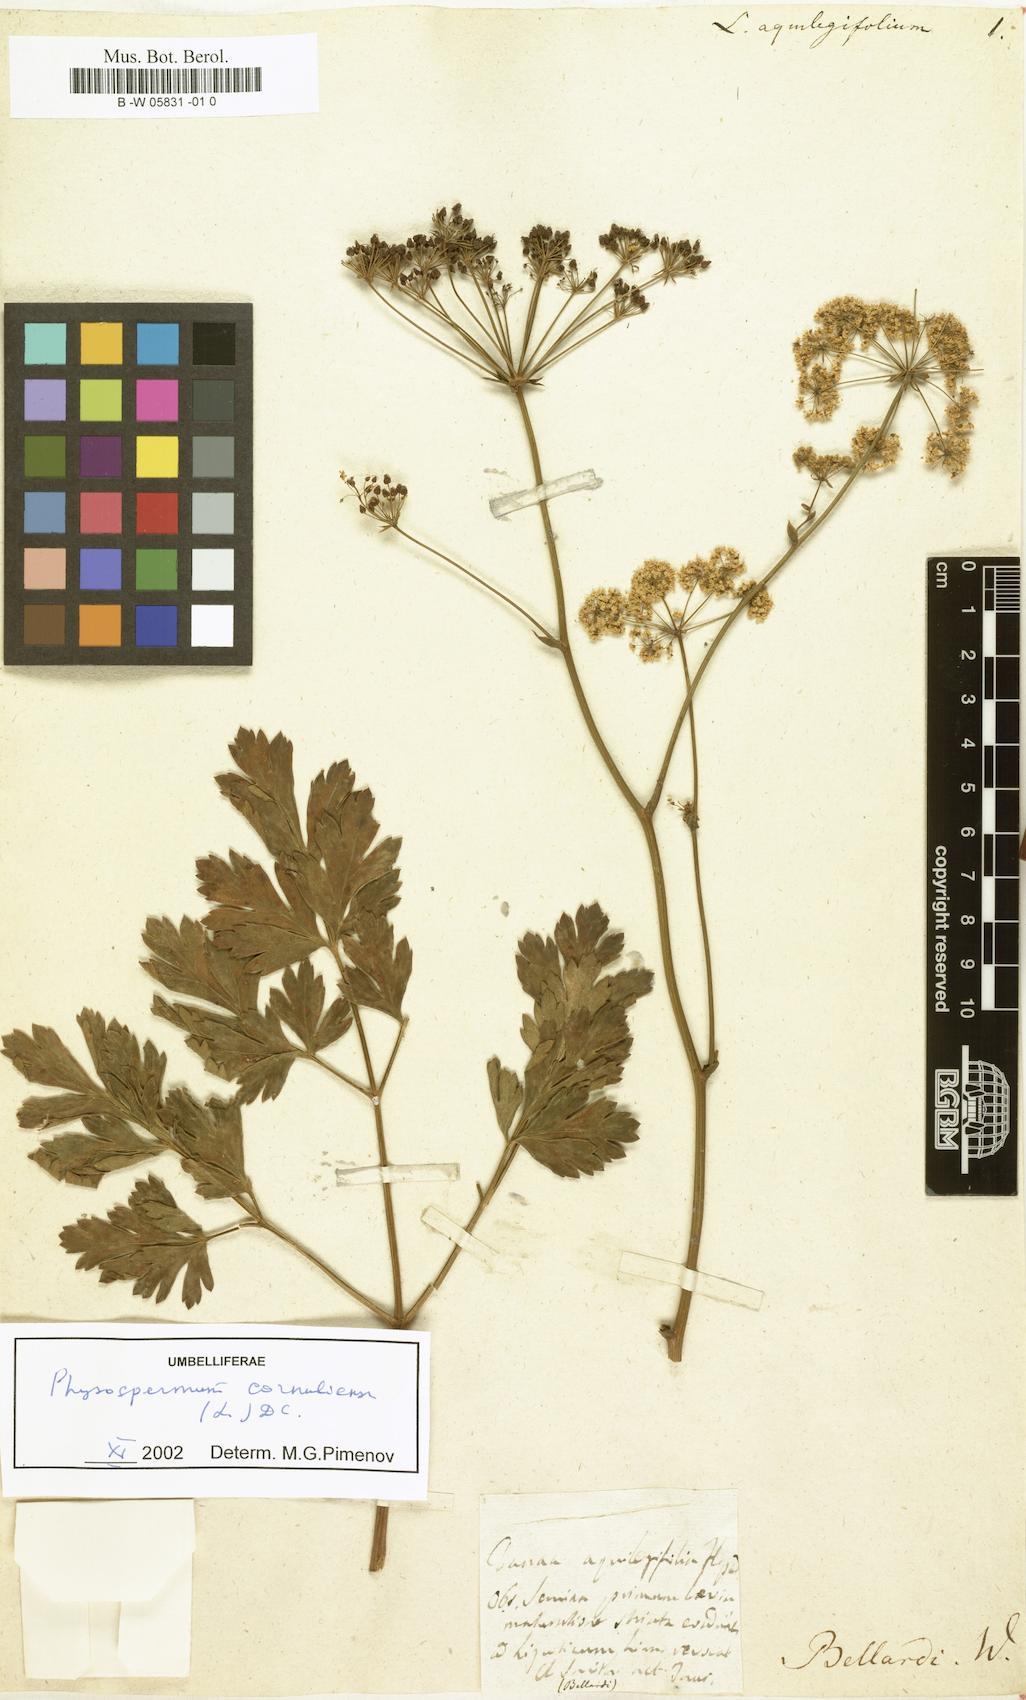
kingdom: Plantae
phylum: Tracheophyta
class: Magnoliopsida
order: Apiales
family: Apiaceae
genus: Physospermum
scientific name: Physospermum cornubiense
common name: Bladderseed
